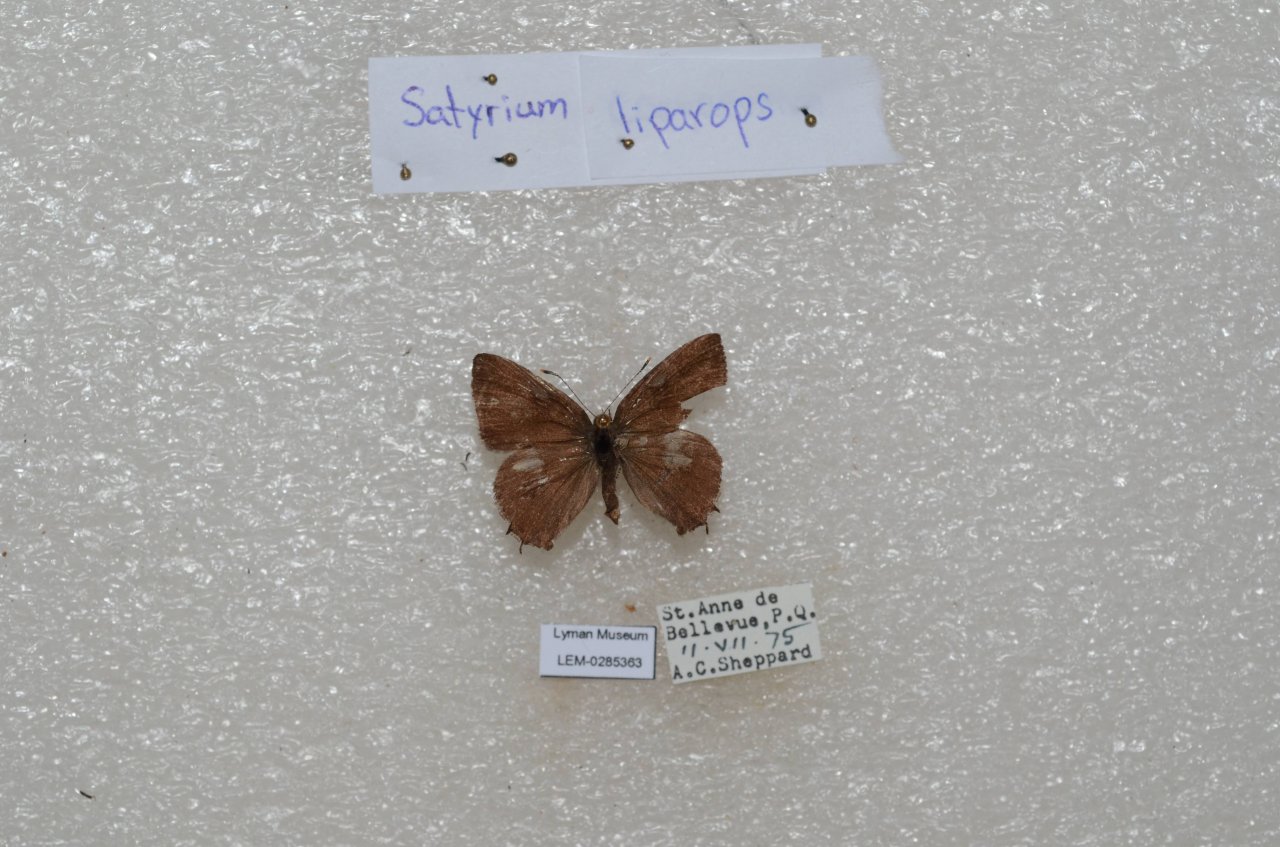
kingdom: Animalia
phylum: Arthropoda
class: Insecta
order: Lepidoptera
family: Lycaenidae
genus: Satyrium
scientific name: Satyrium liparops
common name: Striped Hairstreak
